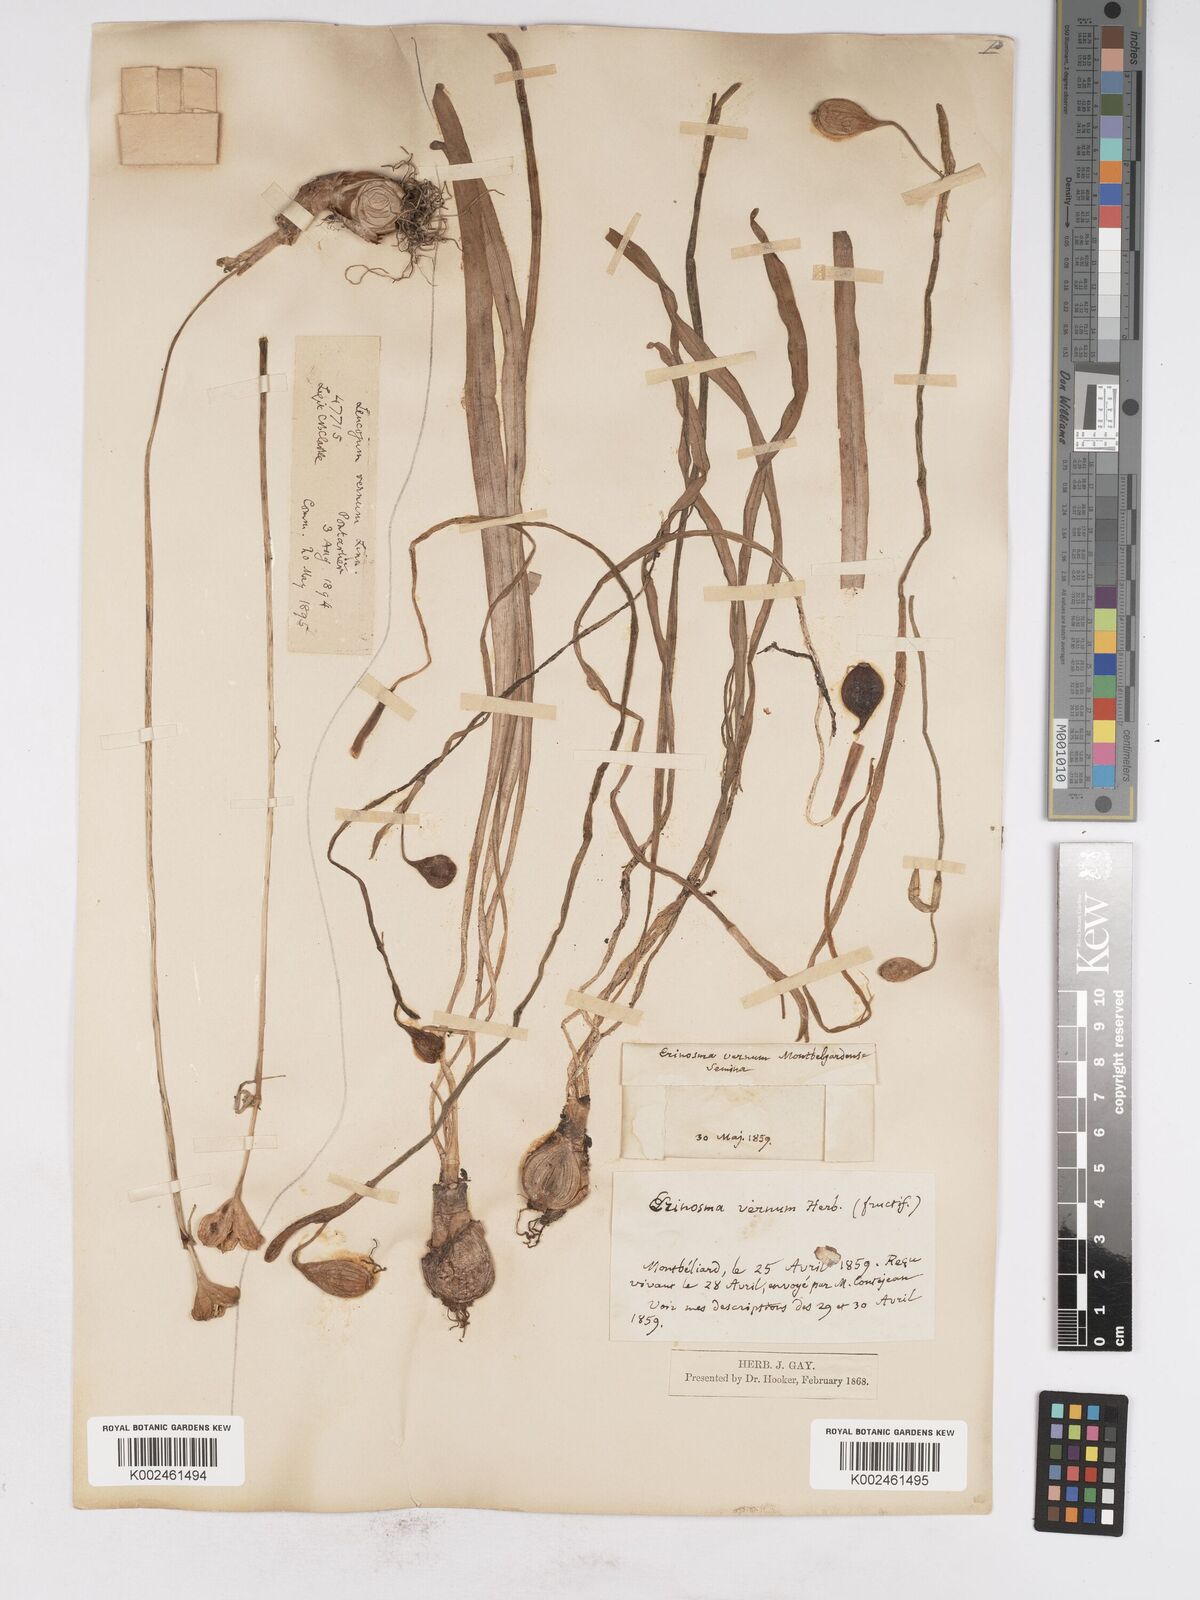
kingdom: Plantae
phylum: Tracheophyta
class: Liliopsida
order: Asparagales
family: Amaryllidaceae
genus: Leucojum
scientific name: Leucojum vernum
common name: Spring snowflake
